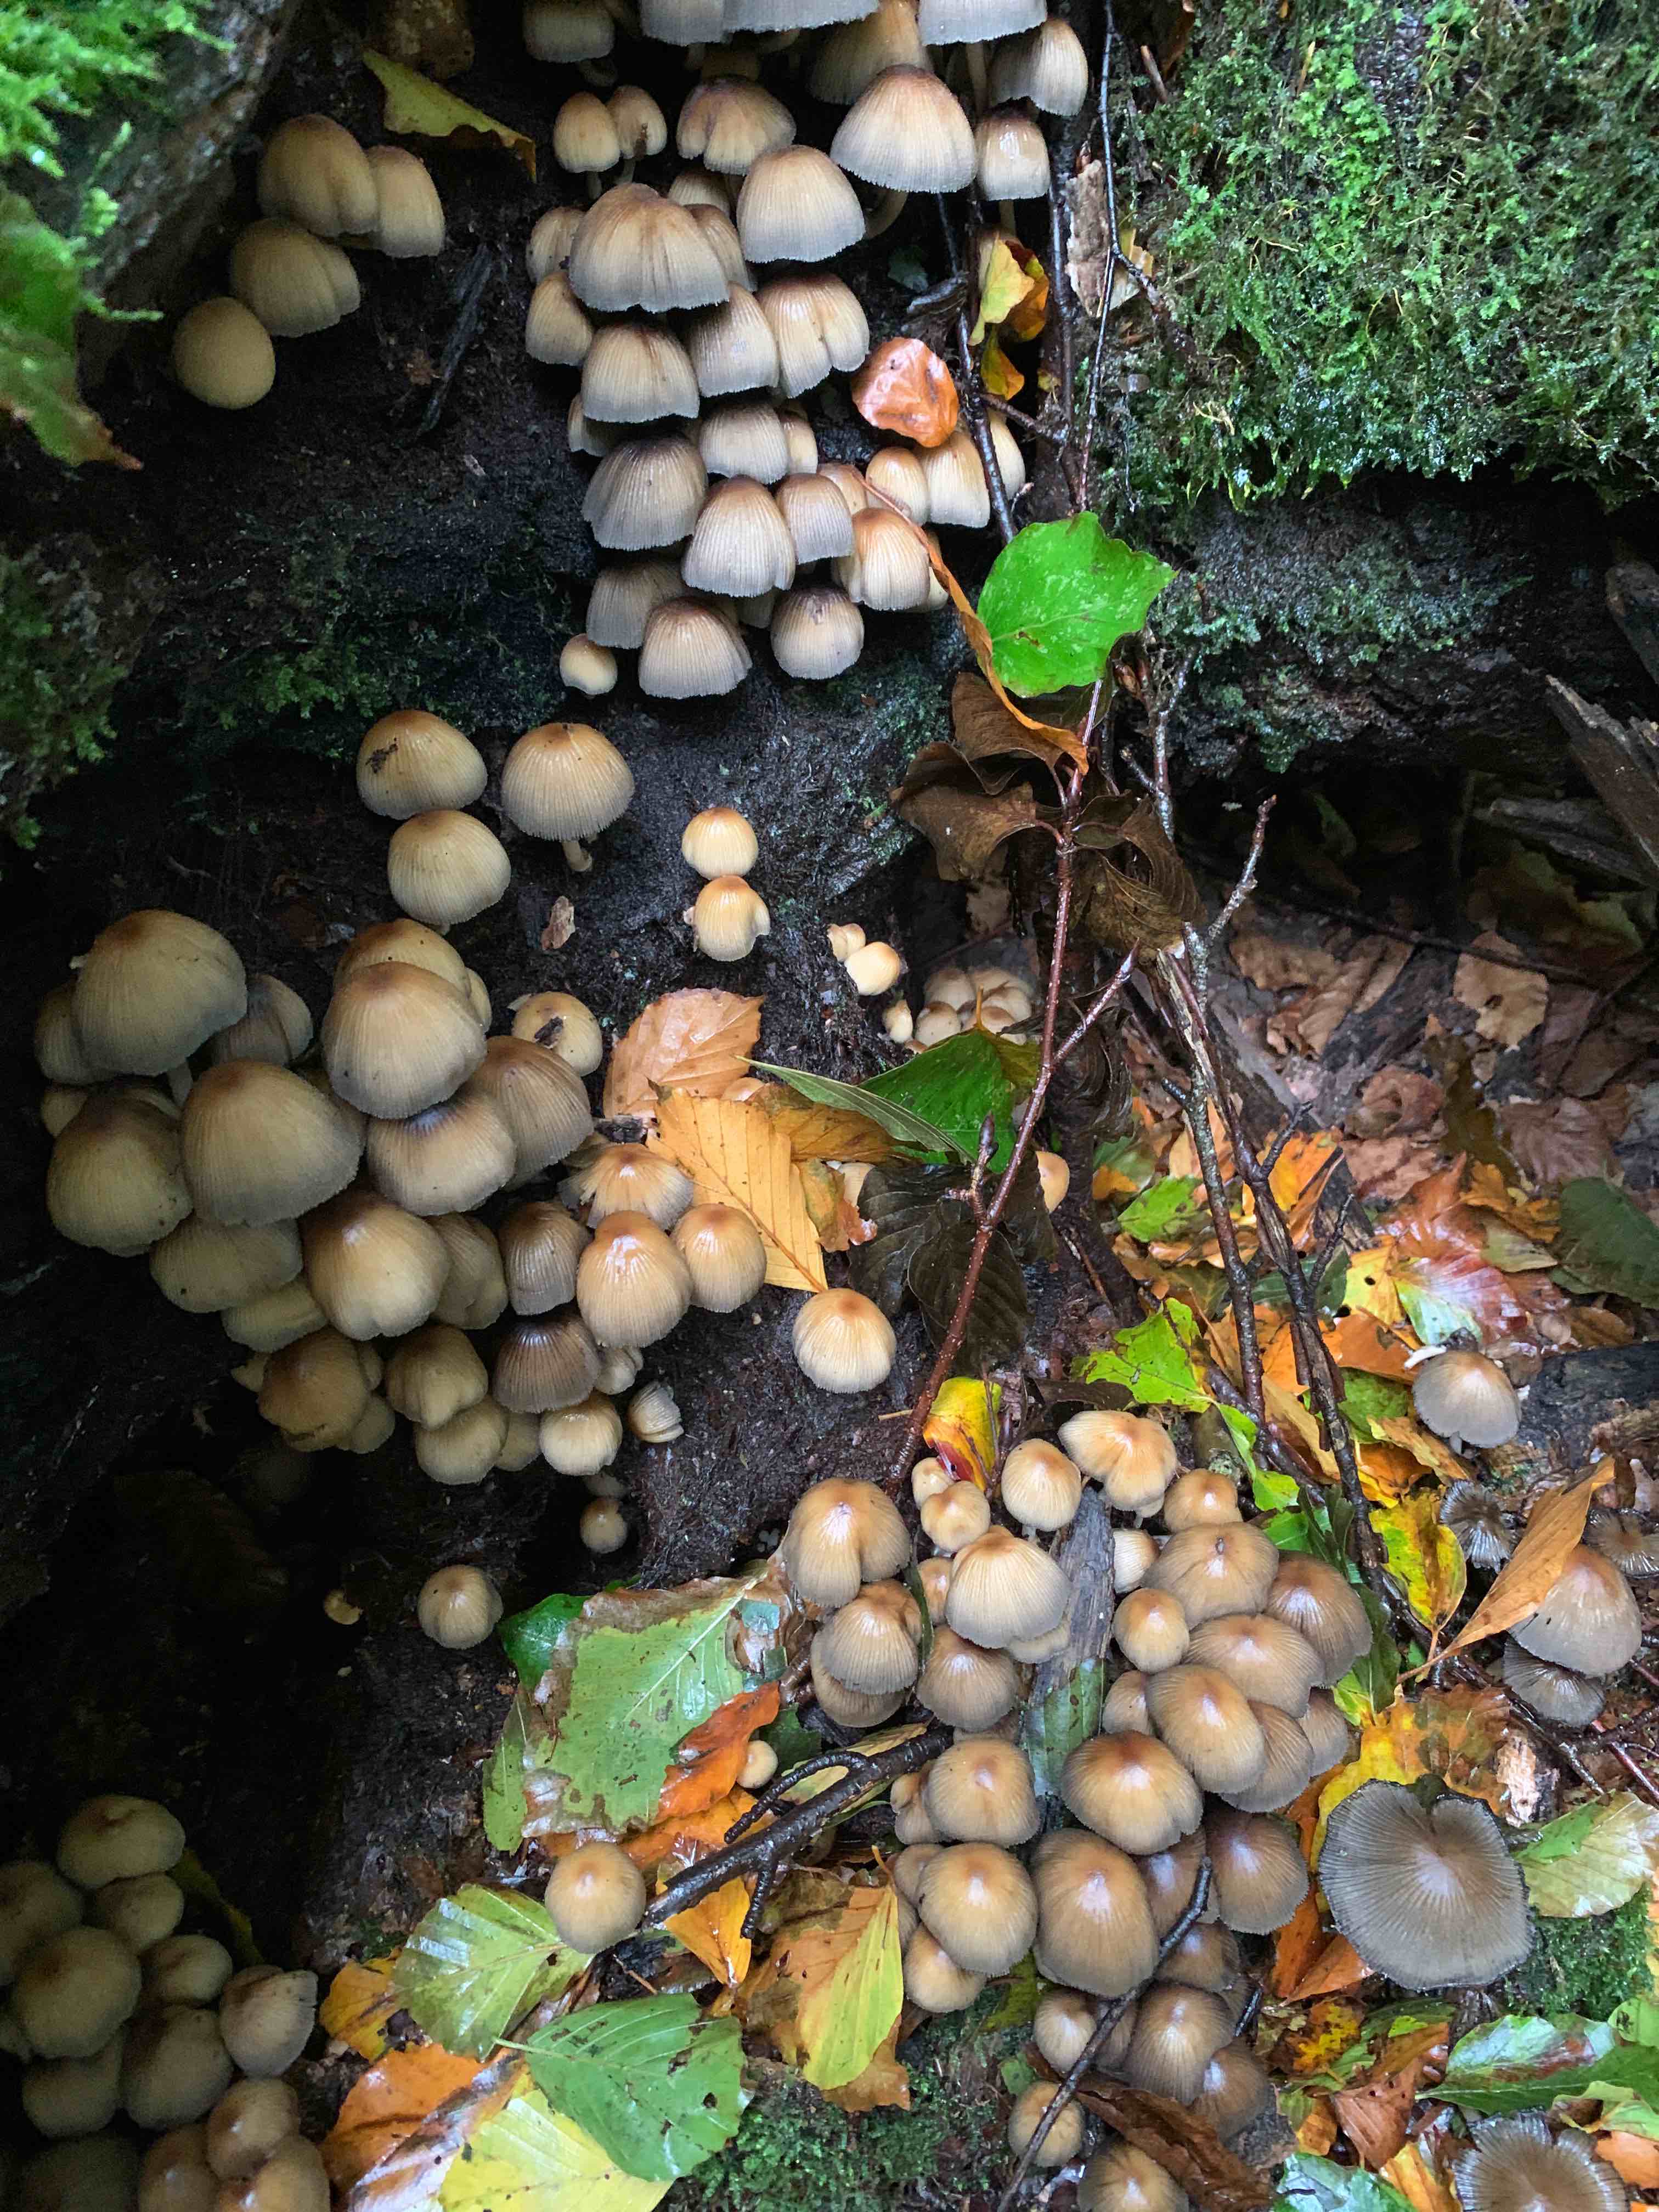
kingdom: Fungi
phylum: Basidiomycota
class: Agaricomycetes
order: Agaricales
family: Psathyrellaceae
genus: Coprinellus
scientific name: Coprinellus micaceus
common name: glimmer-blækhat
